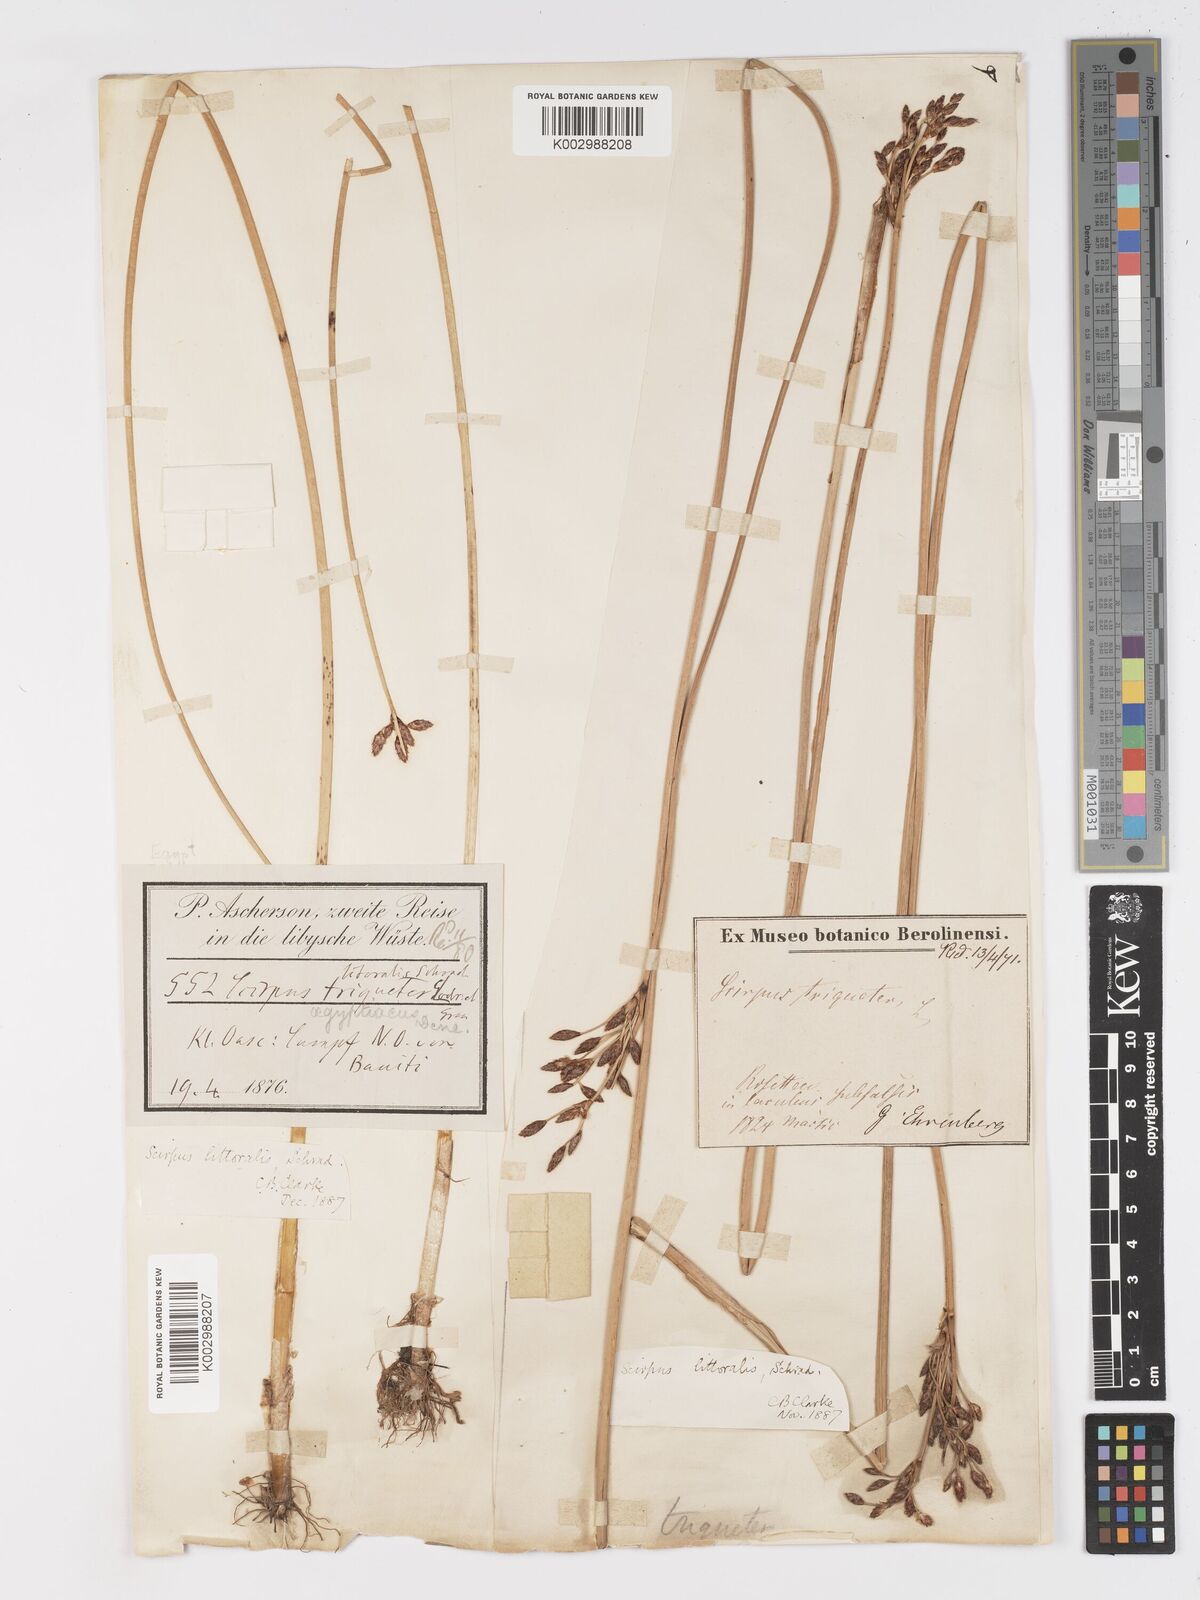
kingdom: Plantae
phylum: Tracheophyta
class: Liliopsida
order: Poales
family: Cyperaceae
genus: Schoenoplectus
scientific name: Schoenoplectus litoralis
